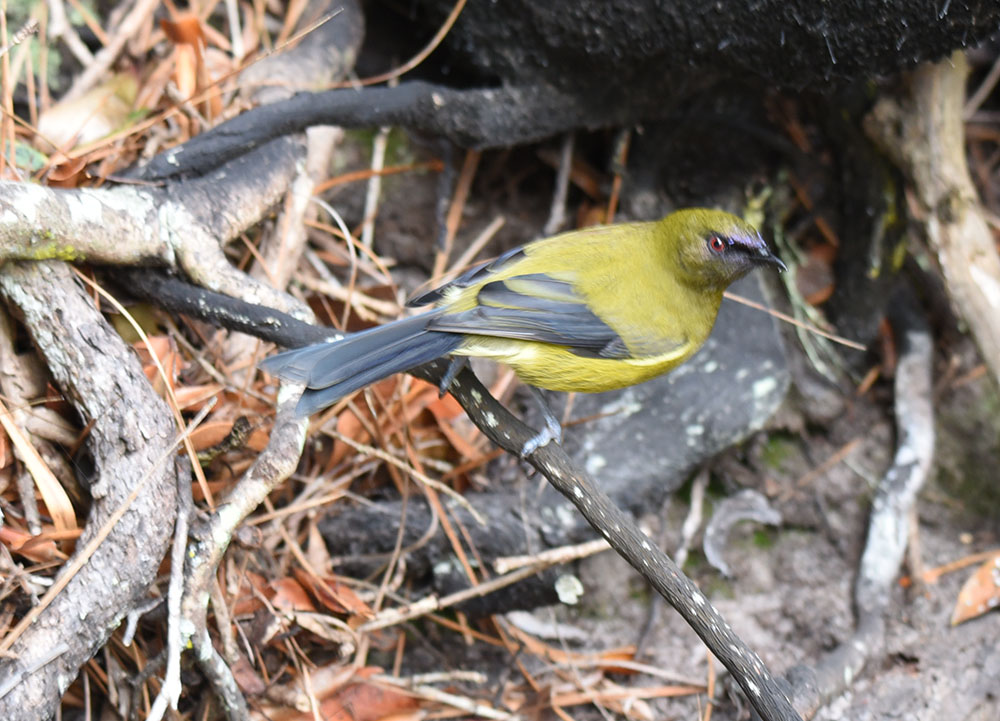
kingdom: Animalia
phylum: Chordata
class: Aves
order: Passeriformes
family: Meliphagidae
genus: Anthornis
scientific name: Anthornis melanura
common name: New zealand bellbird
